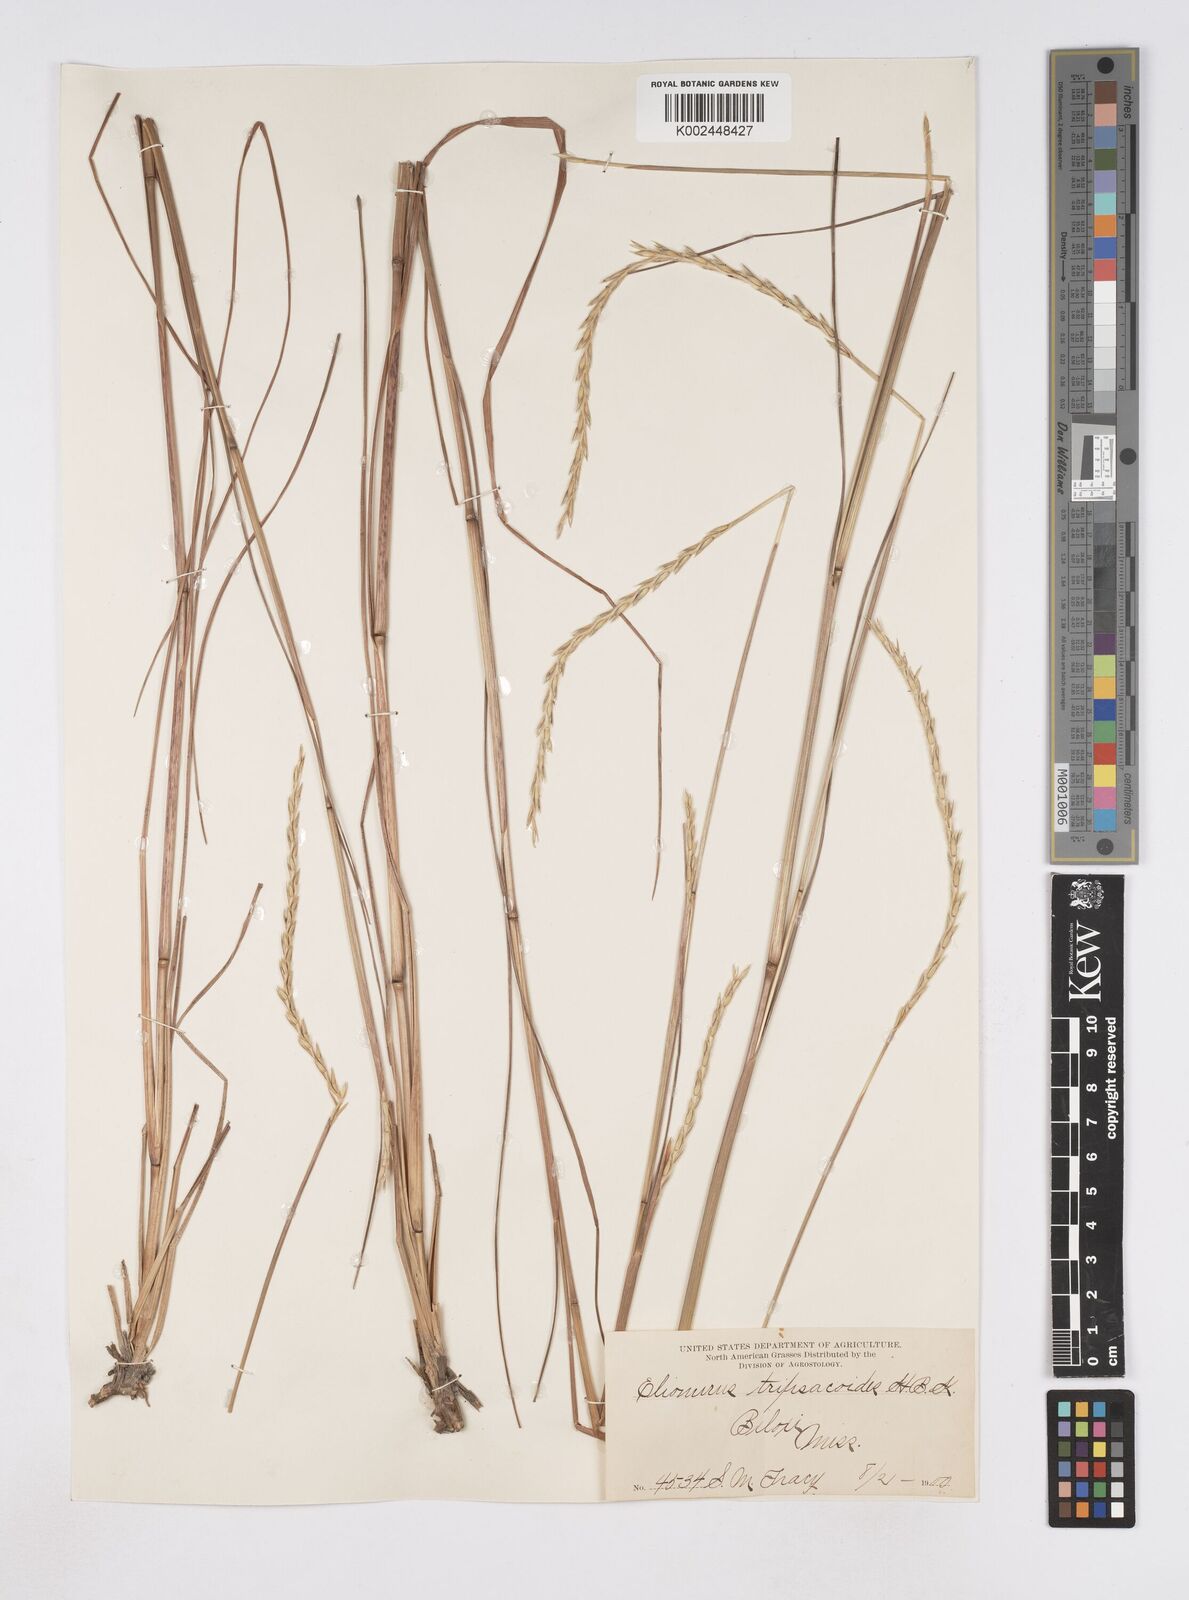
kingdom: Plantae
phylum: Tracheophyta
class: Liliopsida
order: Poales
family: Poaceae
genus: Elionurus
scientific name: Elionurus tripsacoides
